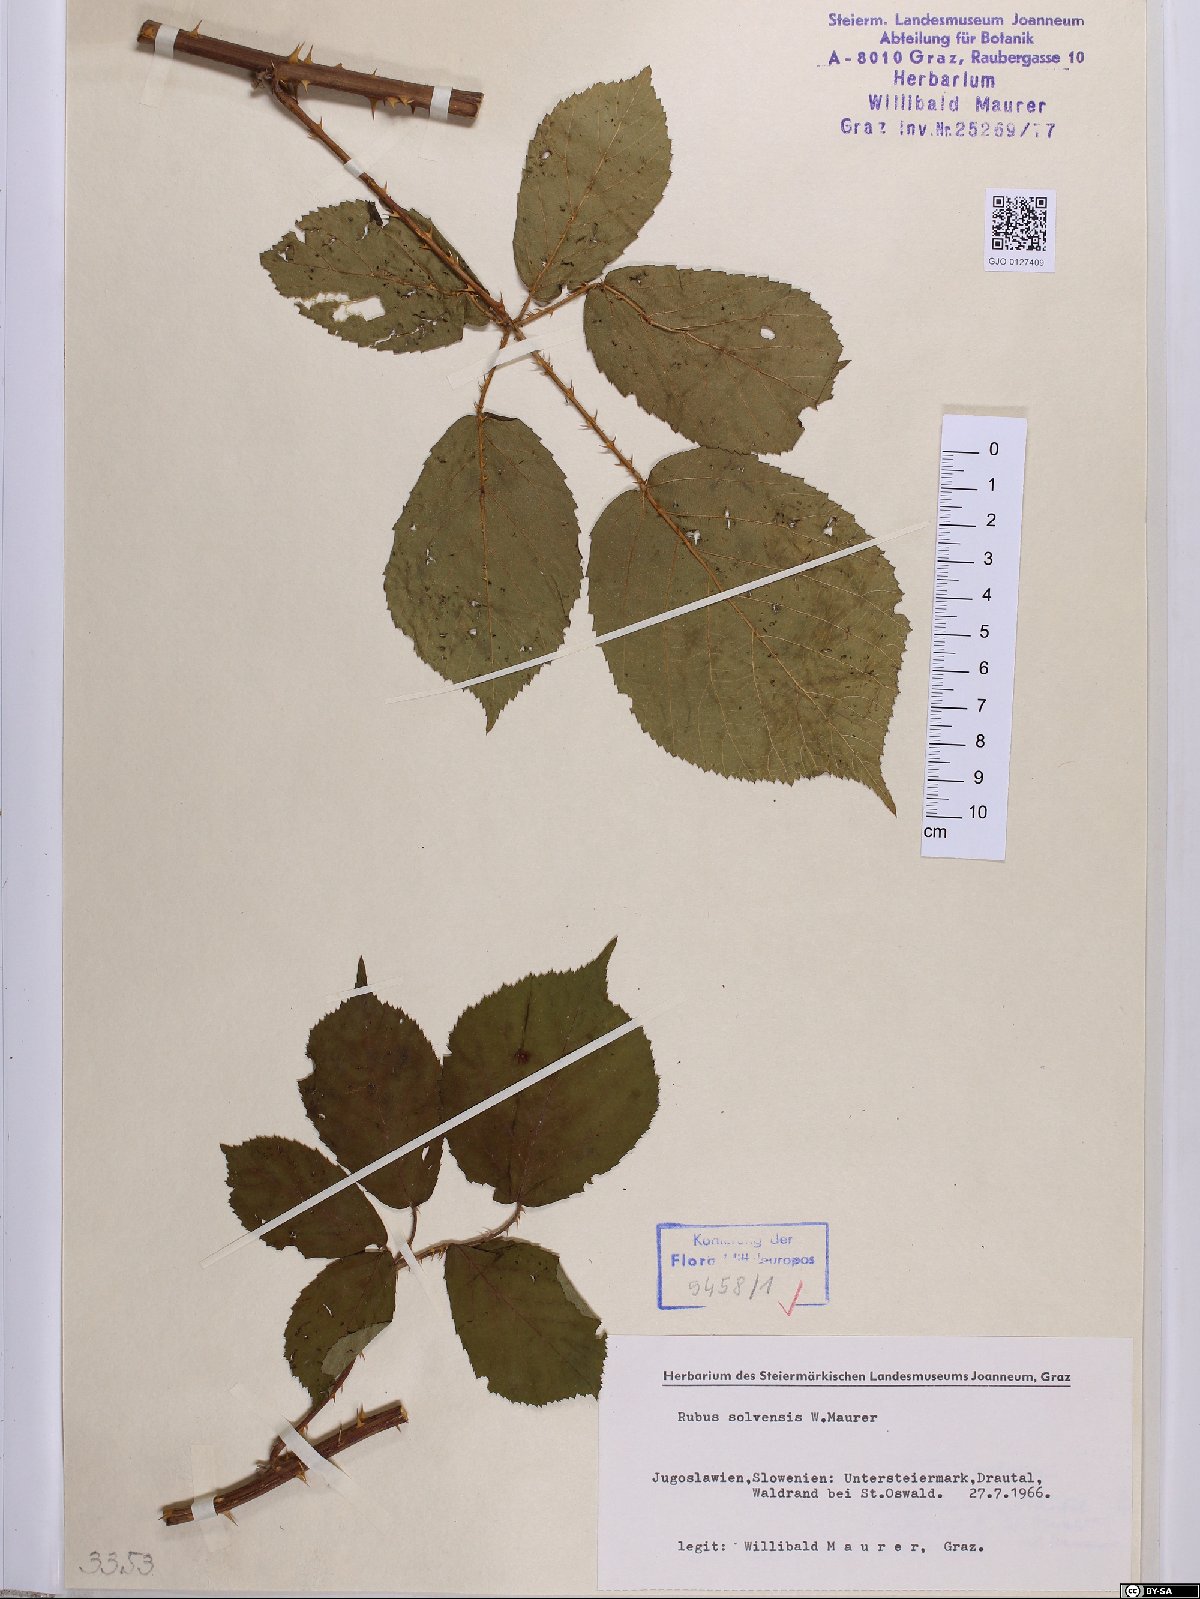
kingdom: Plantae
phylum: Tracheophyta
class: Magnoliopsida
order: Rosales
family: Rosaceae
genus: Rubus
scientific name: Rubus solvensis
